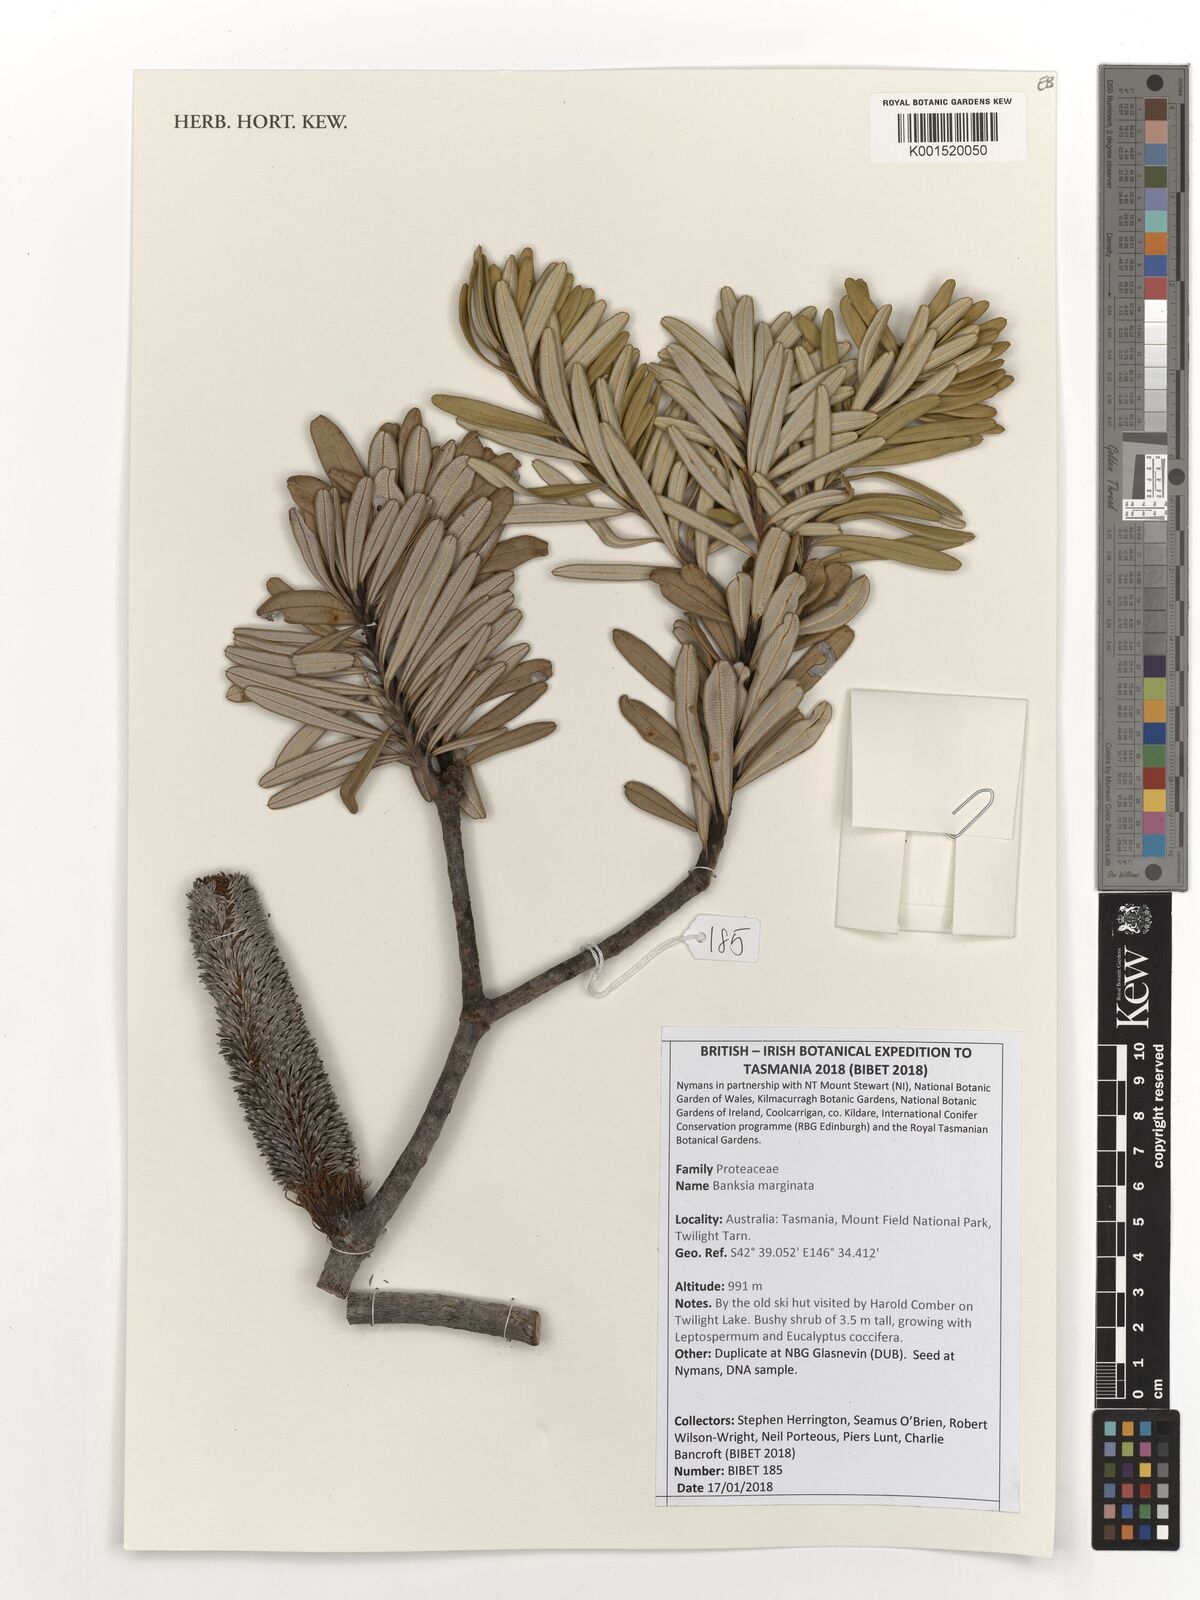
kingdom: Plantae
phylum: Tracheophyta
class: Magnoliopsida
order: Proteales
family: Proteaceae
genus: Banksia
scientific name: Banksia marginata
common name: Silver banksia
